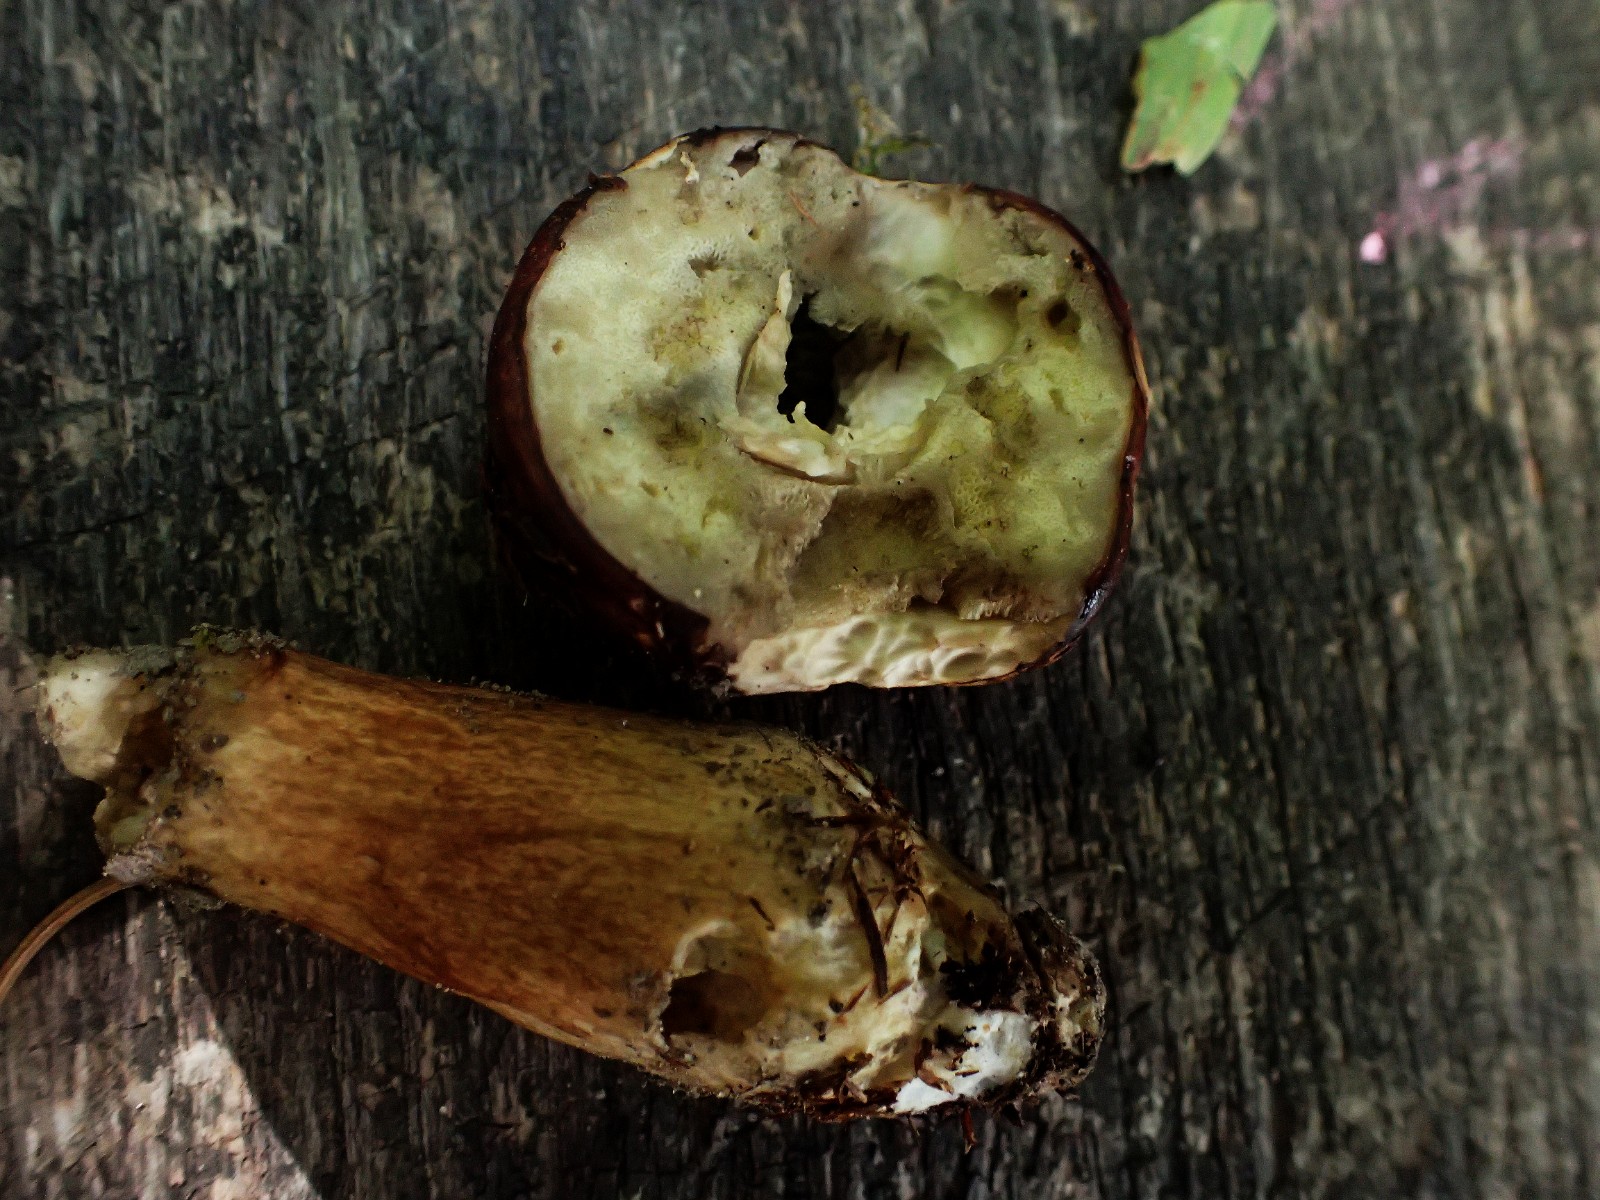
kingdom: Fungi
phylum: Basidiomycota
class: Agaricomycetes
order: Boletales
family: Boletaceae
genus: Imleria
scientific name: Imleria badia
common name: brunstokket rørhat
